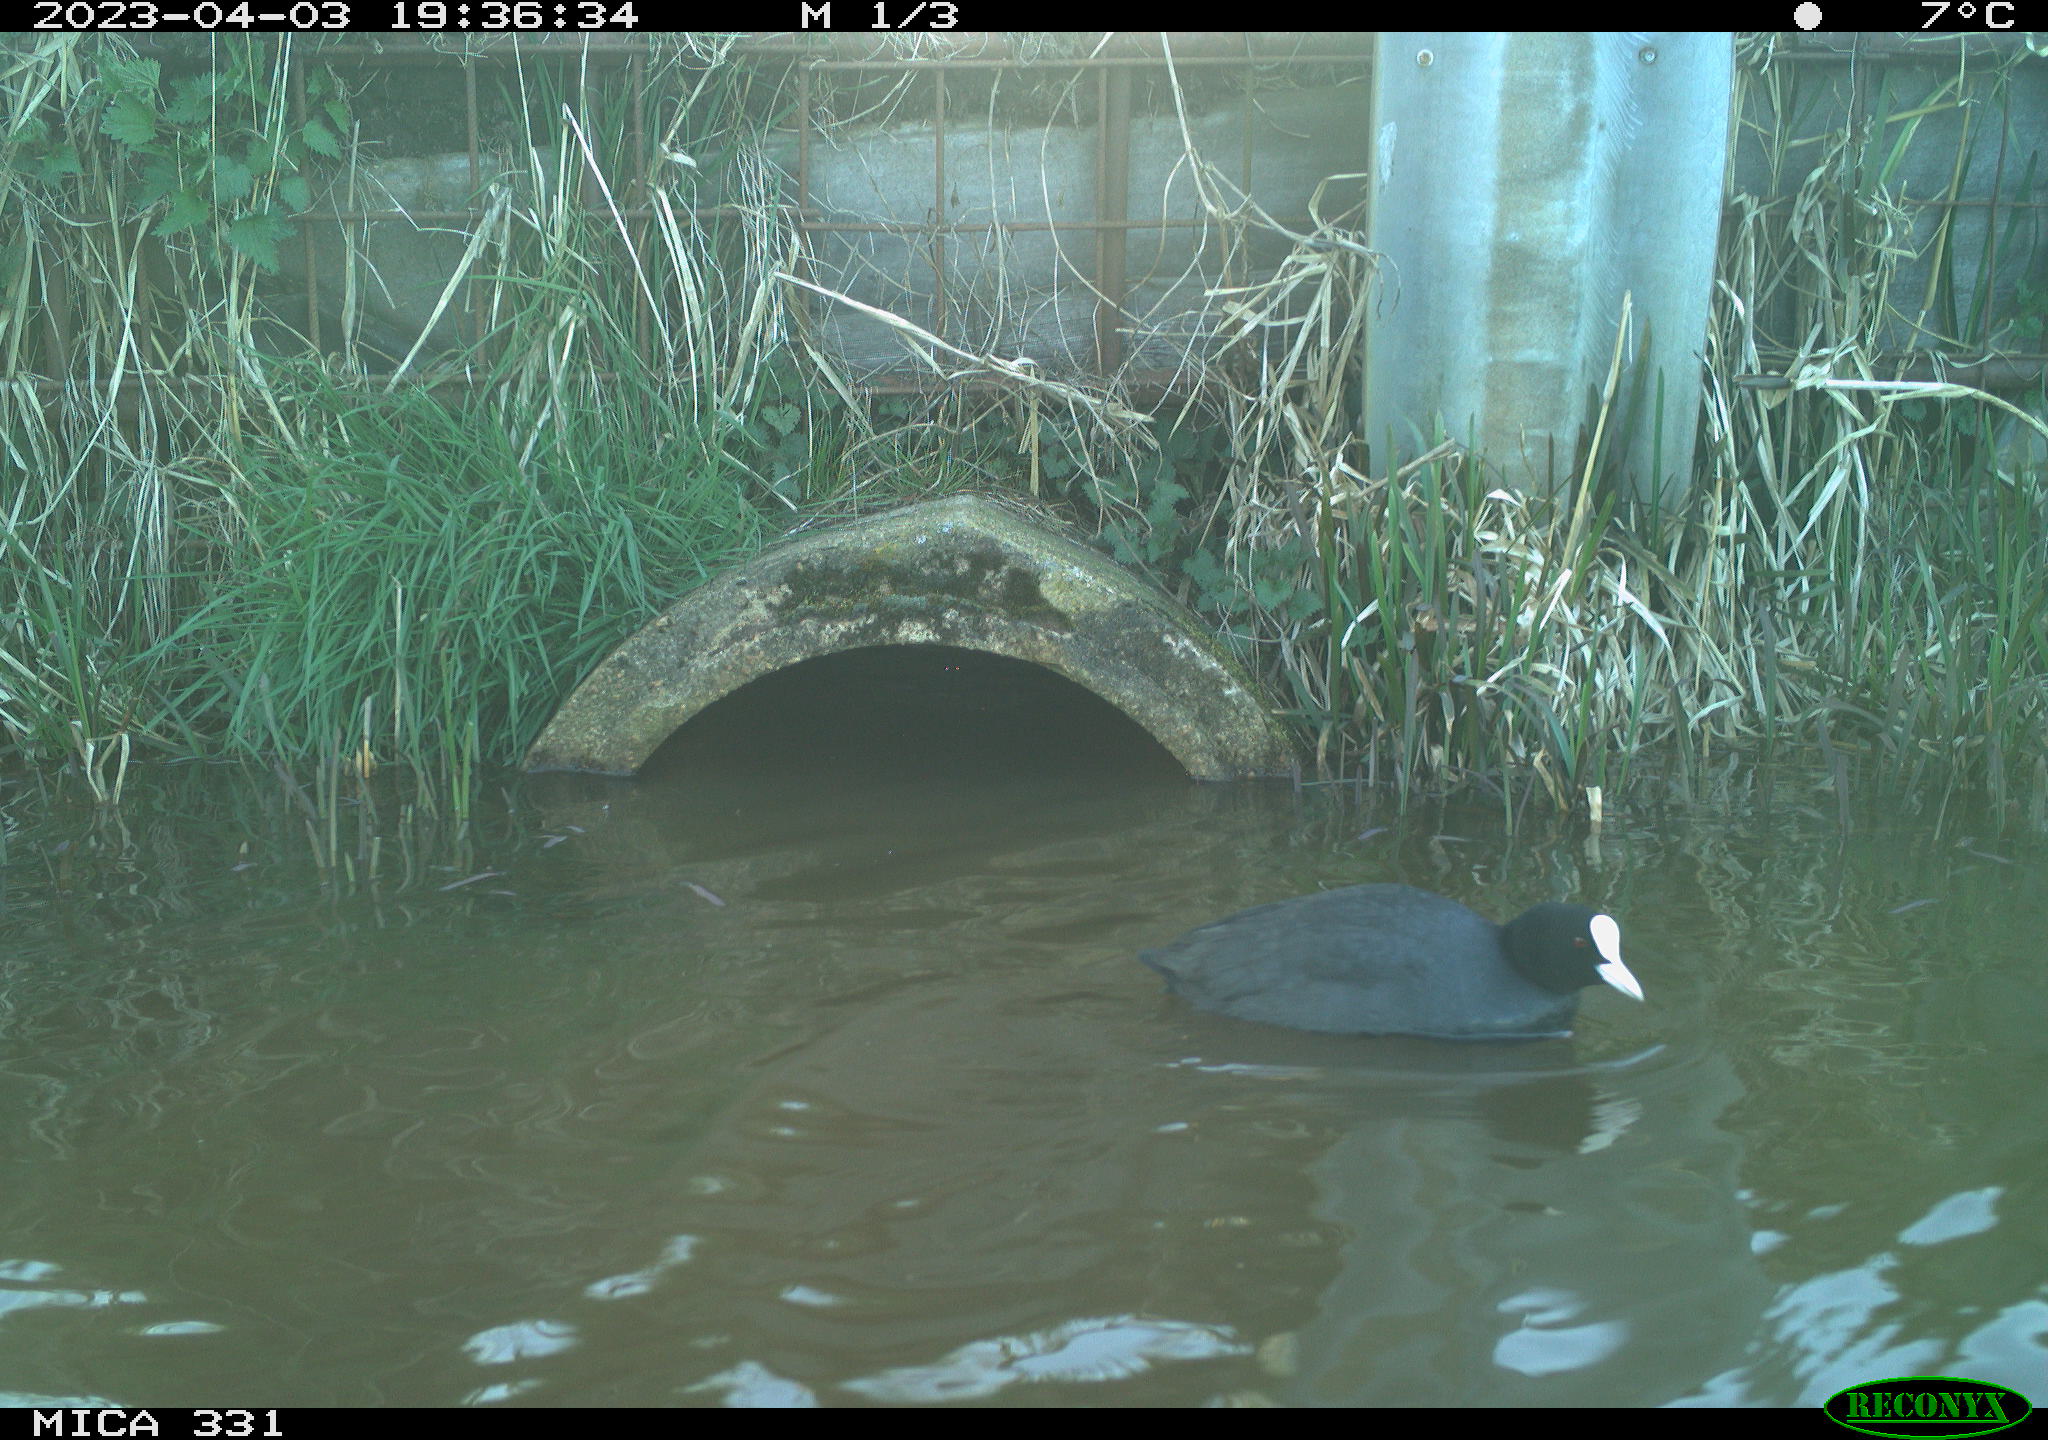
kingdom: Animalia
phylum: Chordata
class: Aves
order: Gruiformes
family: Rallidae
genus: Fulica
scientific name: Fulica atra
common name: Eurasian coot
